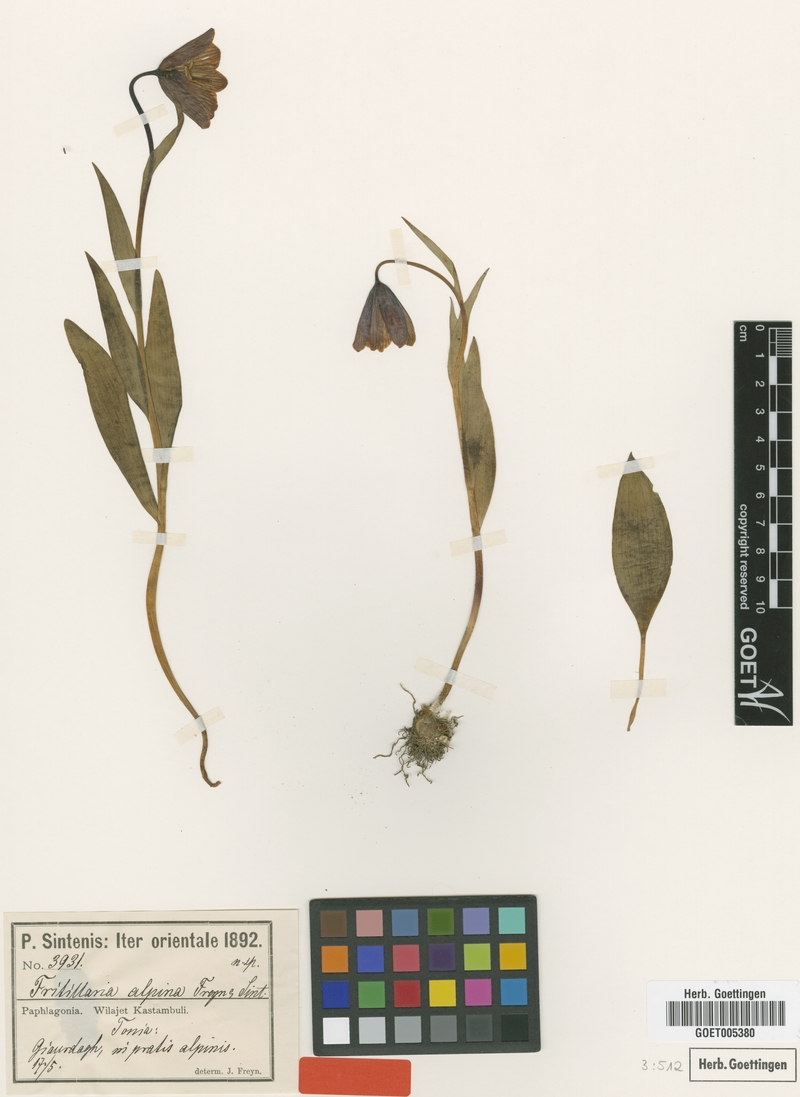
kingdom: Plantae
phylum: Tracheophyta
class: Liliopsida
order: Liliales
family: Liliaceae
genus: Fritillaria
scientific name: Fritillaria pinardii
